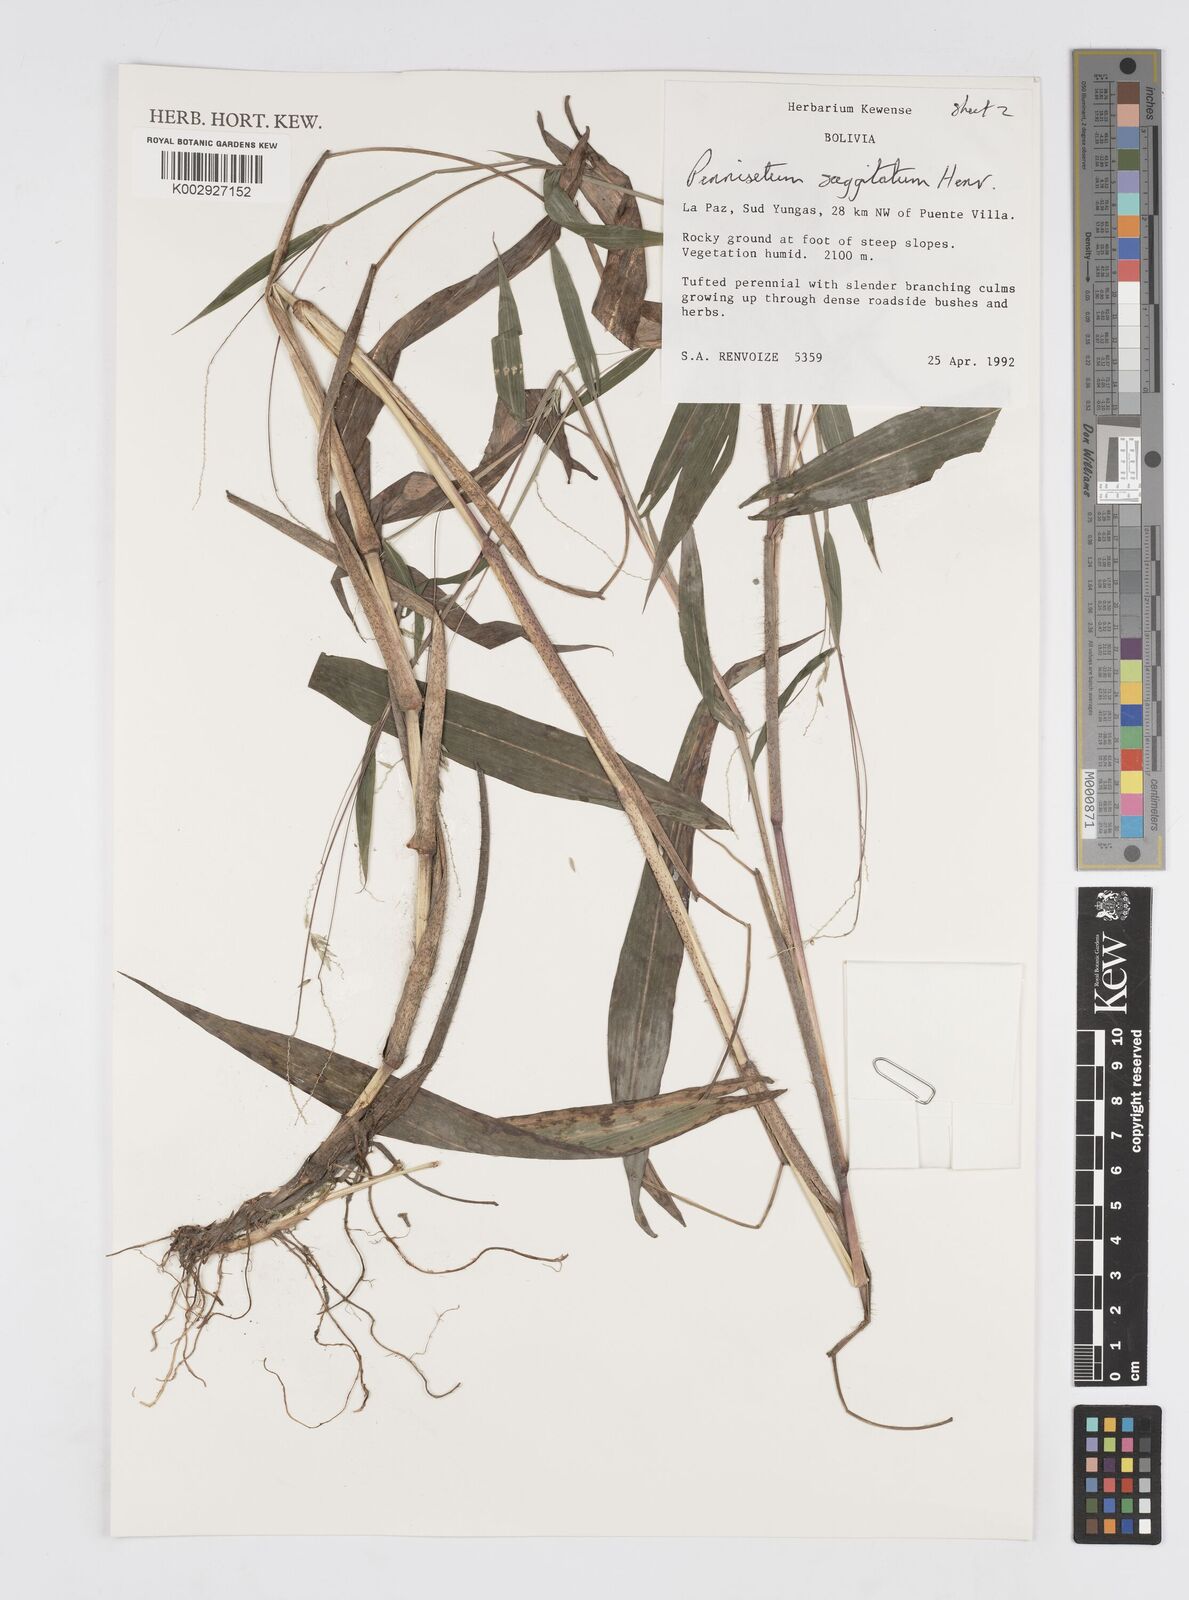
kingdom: Plantae
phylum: Tracheophyta
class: Liliopsida
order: Poales
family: Poaceae
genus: Cenchrus
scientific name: Cenchrus sagittatus
